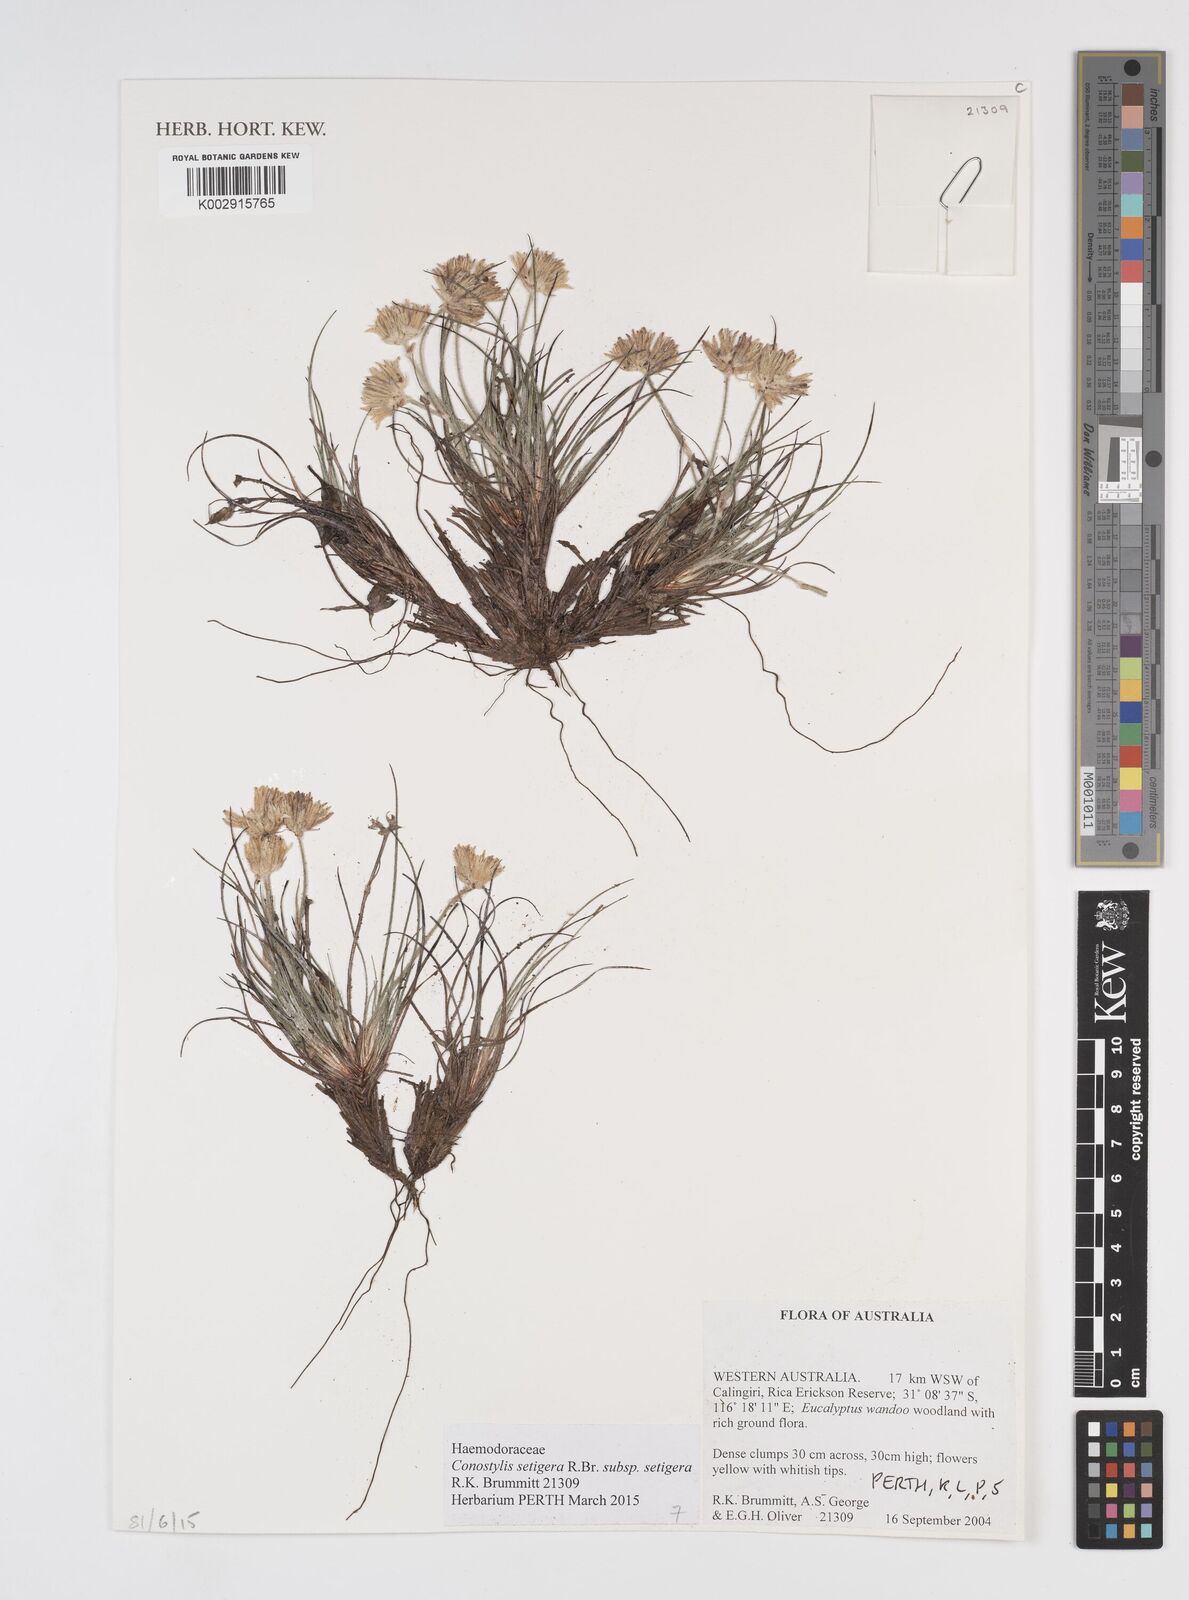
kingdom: Plantae
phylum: Tracheophyta
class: Liliopsida
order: Commelinales
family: Haemodoraceae
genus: Conostylis
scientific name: Conostylis setigera
